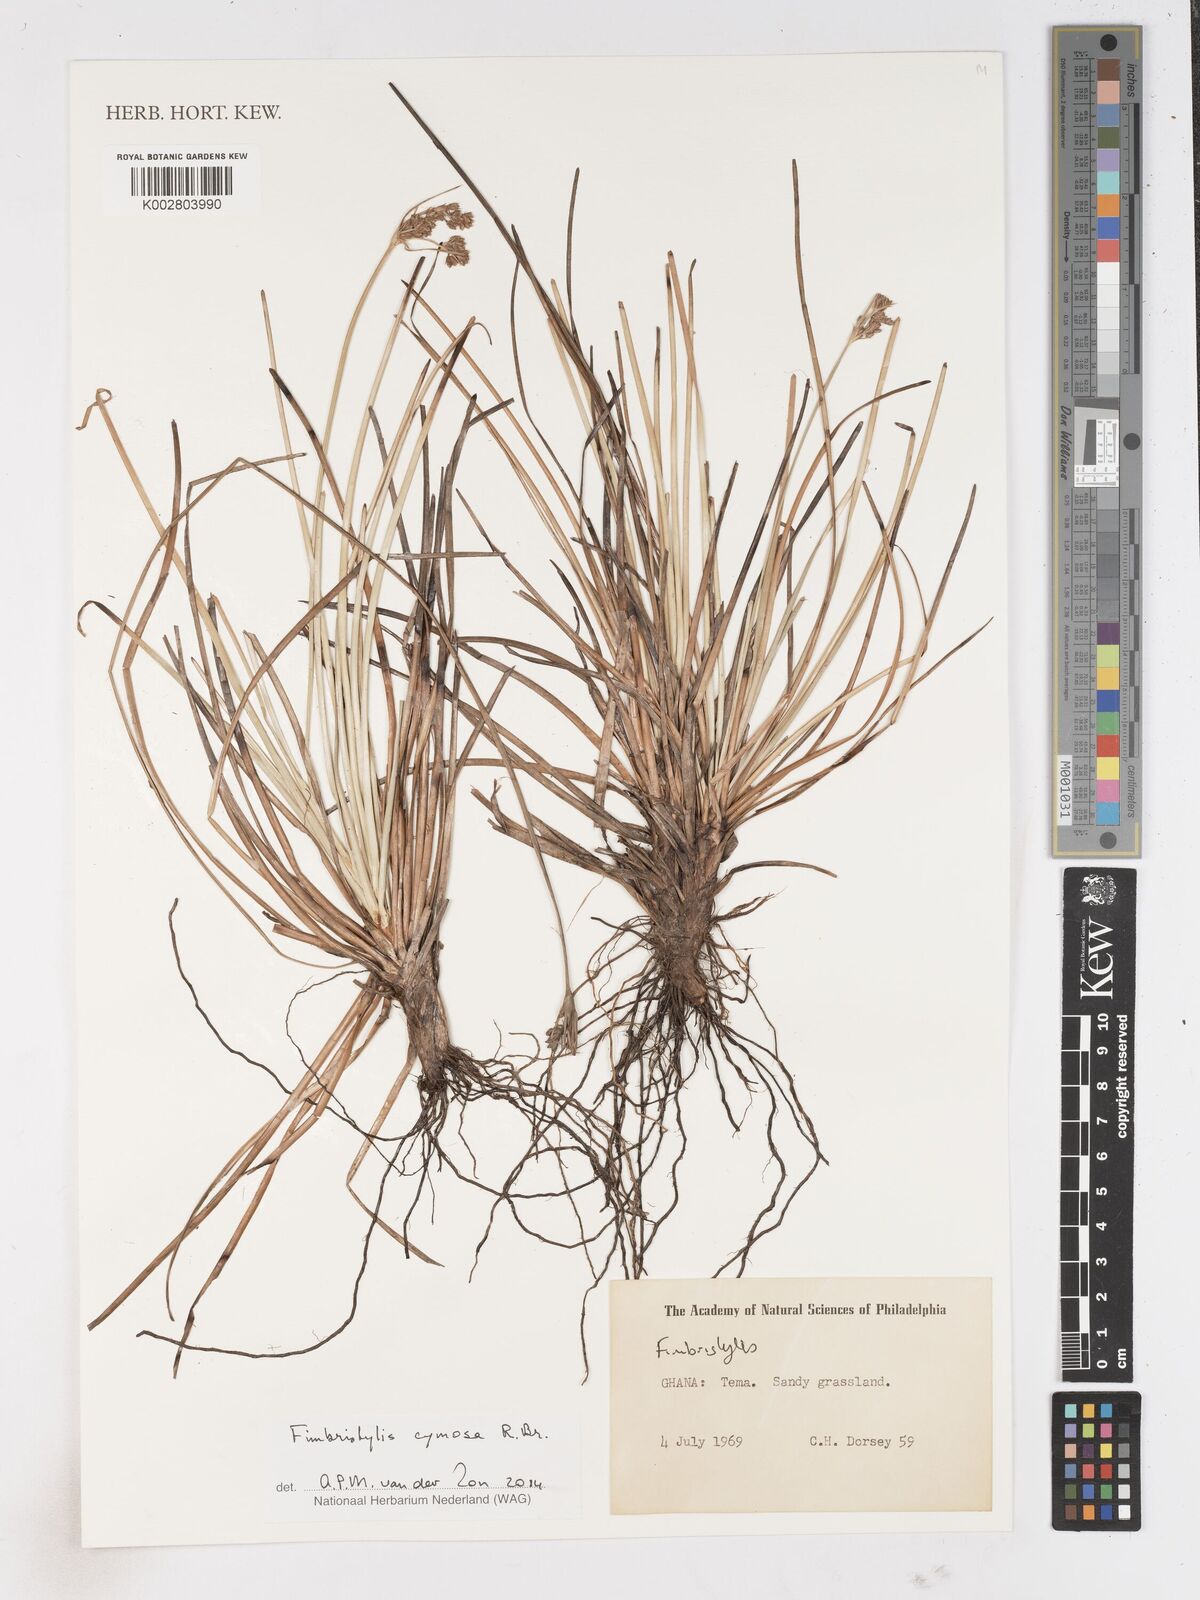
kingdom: Plantae
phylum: Tracheophyta
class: Liliopsida
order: Poales
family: Cyperaceae
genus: Fimbristylis
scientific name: Fimbristylis cymosa
